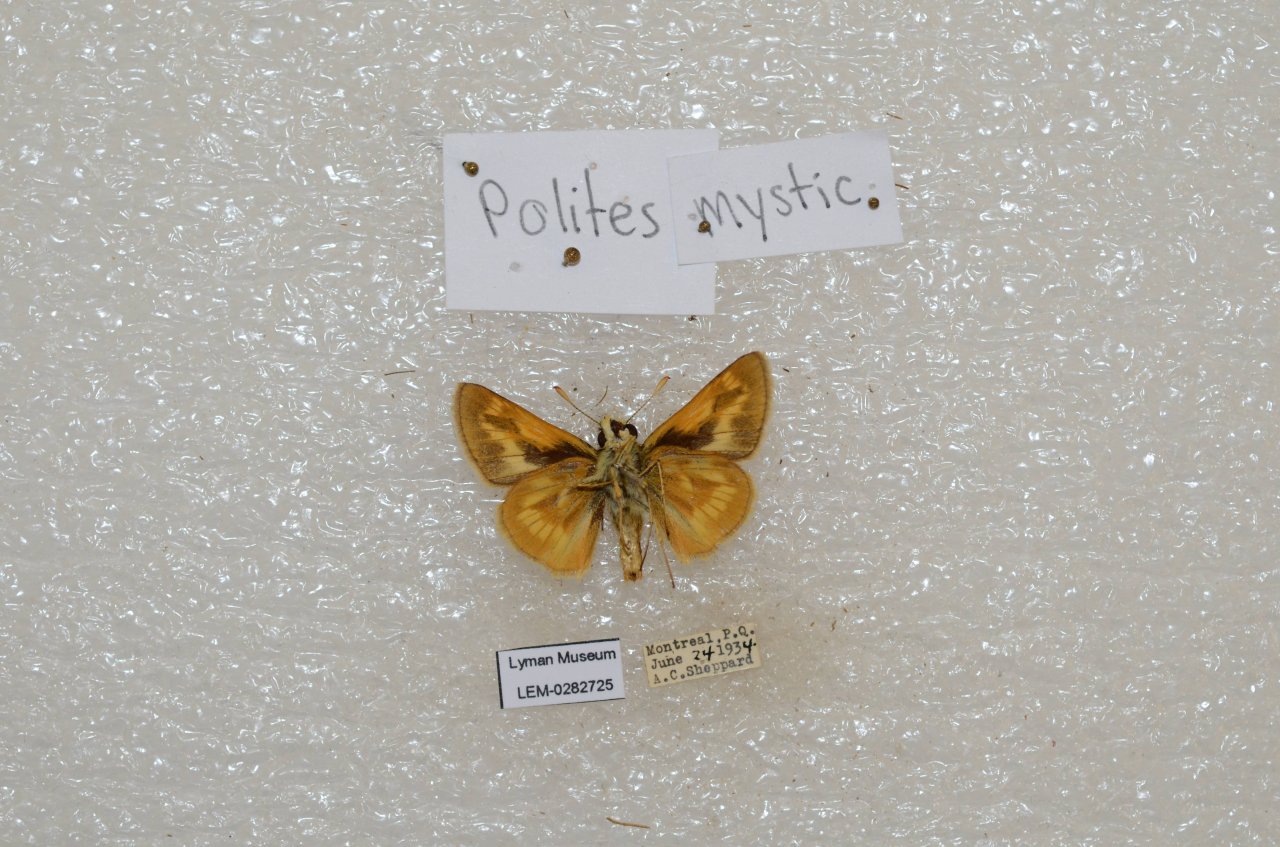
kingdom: Animalia
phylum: Arthropoda
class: Insecta
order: Lepidoptera
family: Hesperiidae
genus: Polites
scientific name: Polites
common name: Long Dash Skipper
